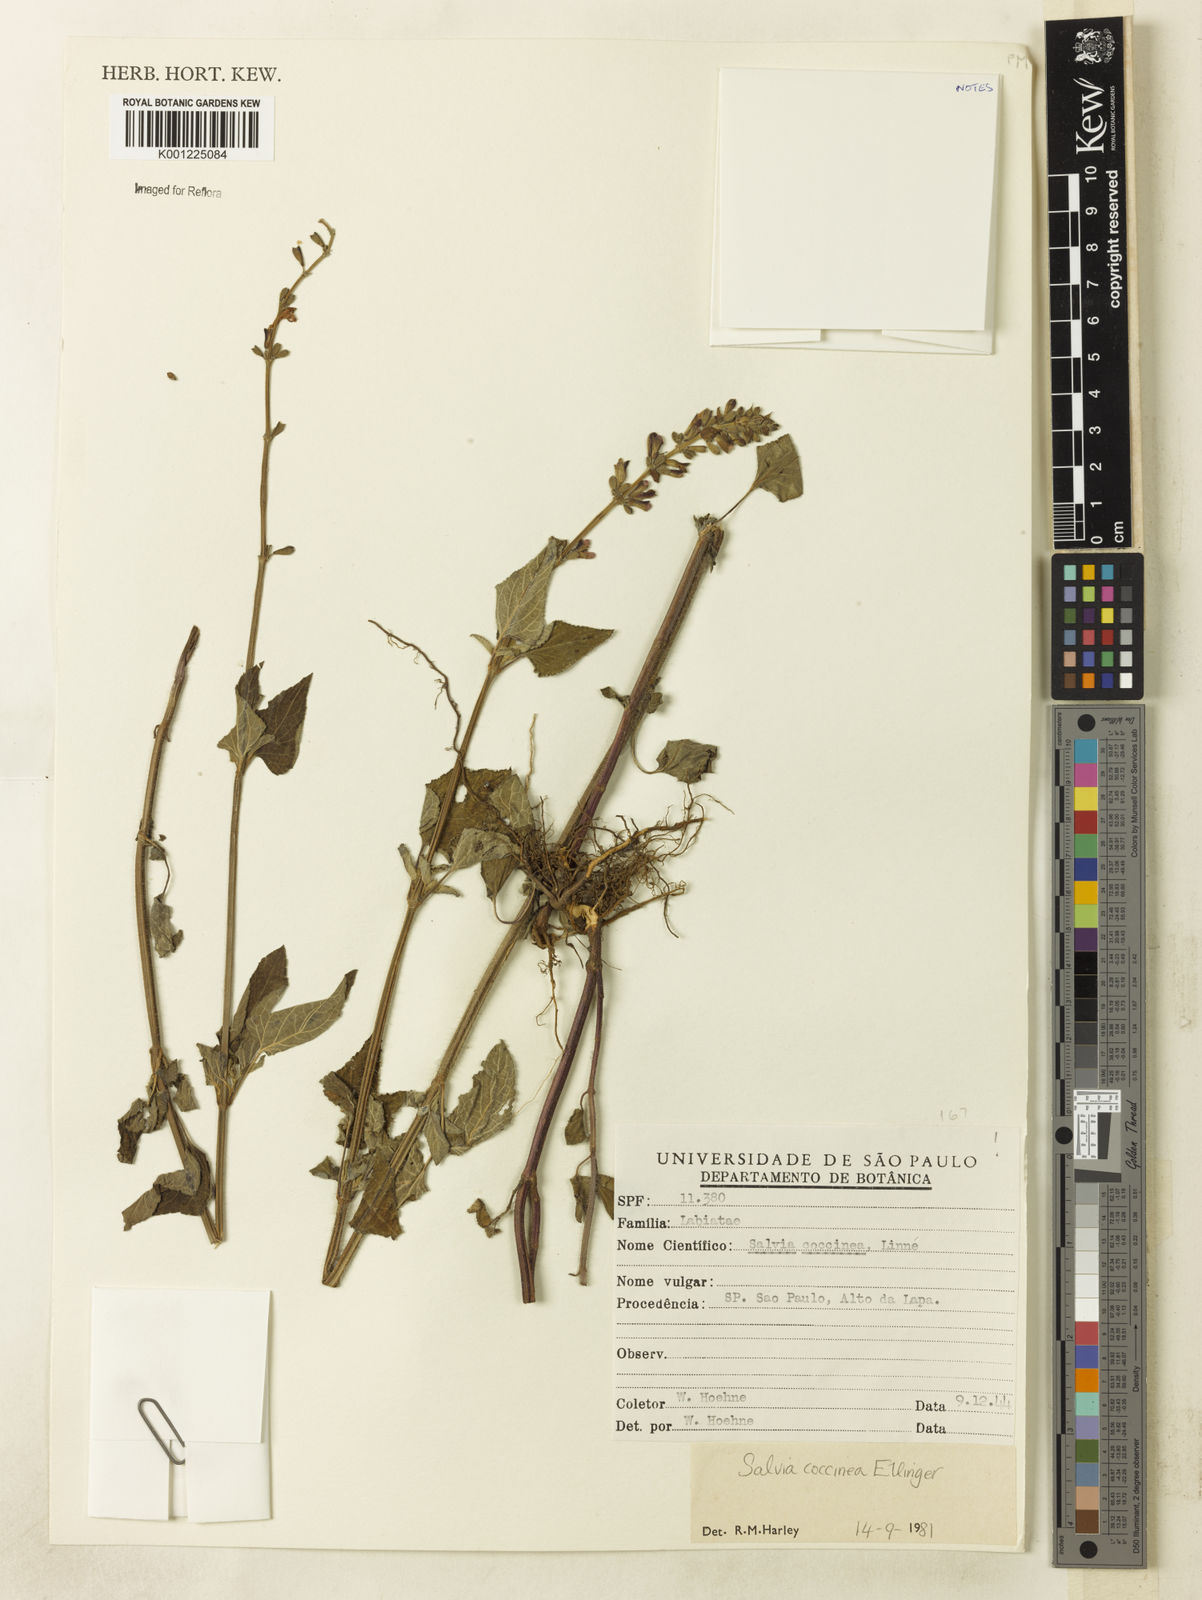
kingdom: Plantae
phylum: Tracheophyta
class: Magnoliopsida
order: Lamiales
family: Lamiaceae
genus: Salvia
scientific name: Salvia coccinea
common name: Blood sage
